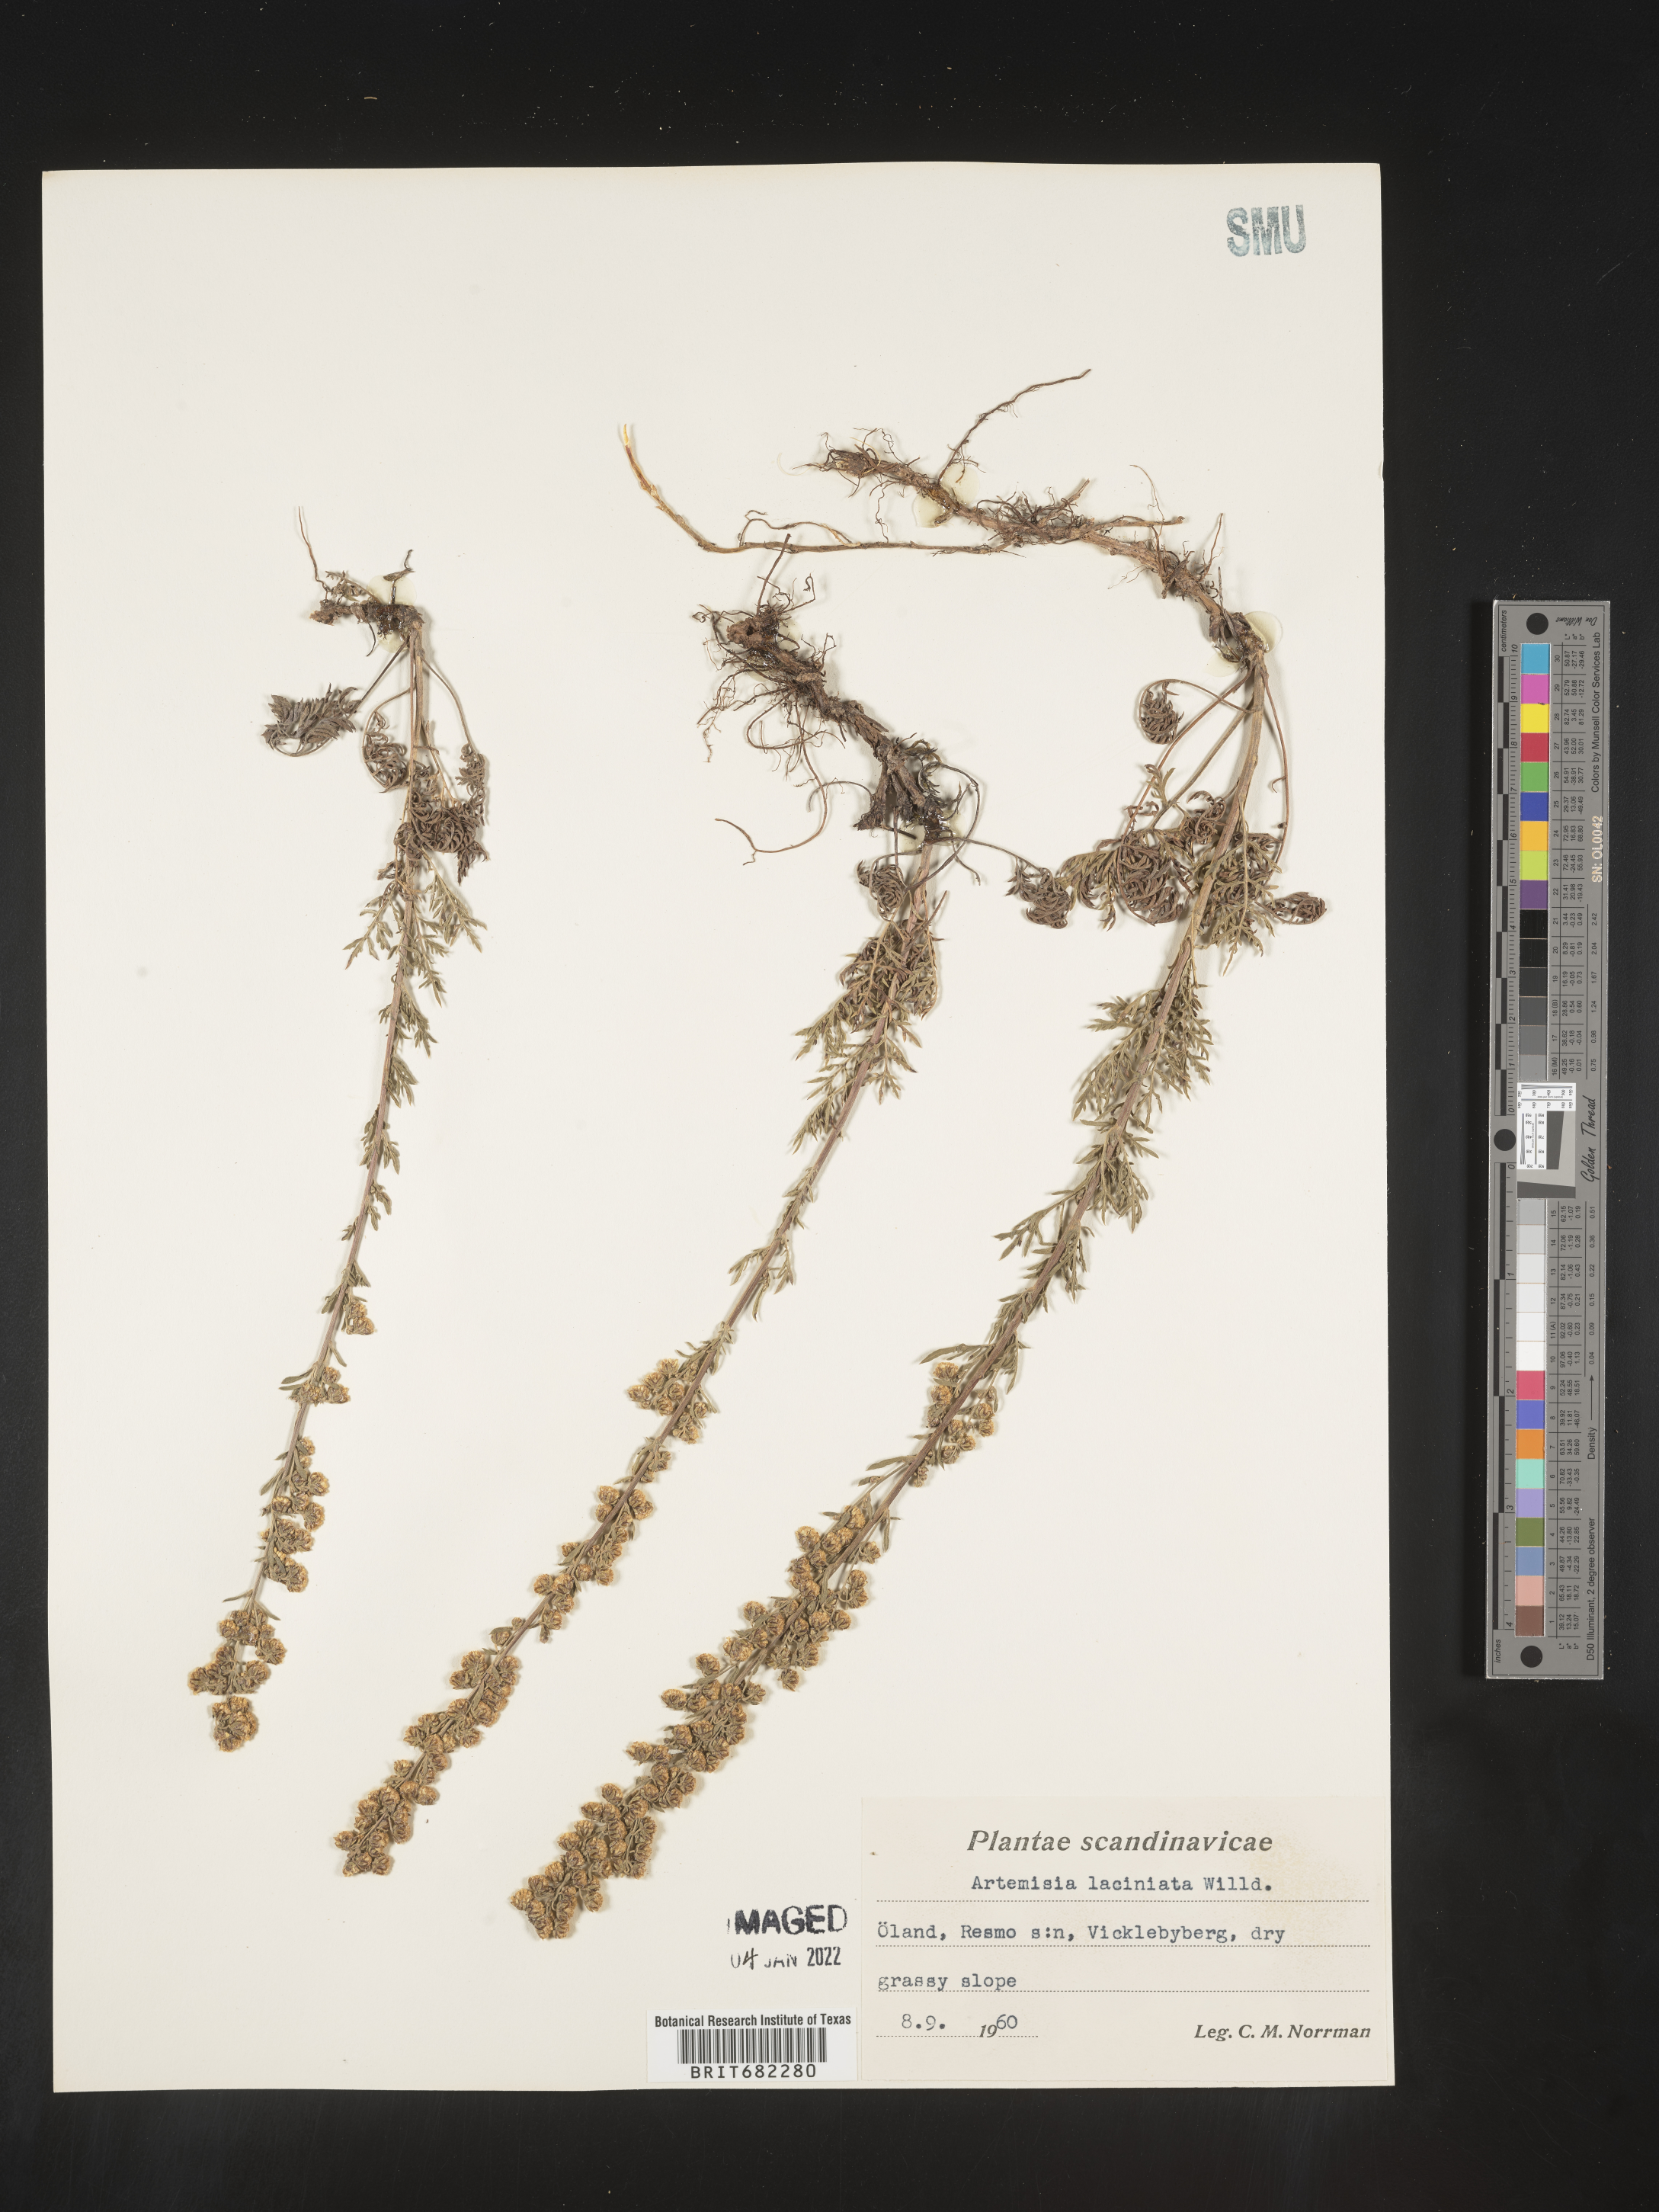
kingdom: Plantae
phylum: Tracheophyta
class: Magnoliopsida
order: Asterales
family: Asteraceae
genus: Artemisia
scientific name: Artemisia
